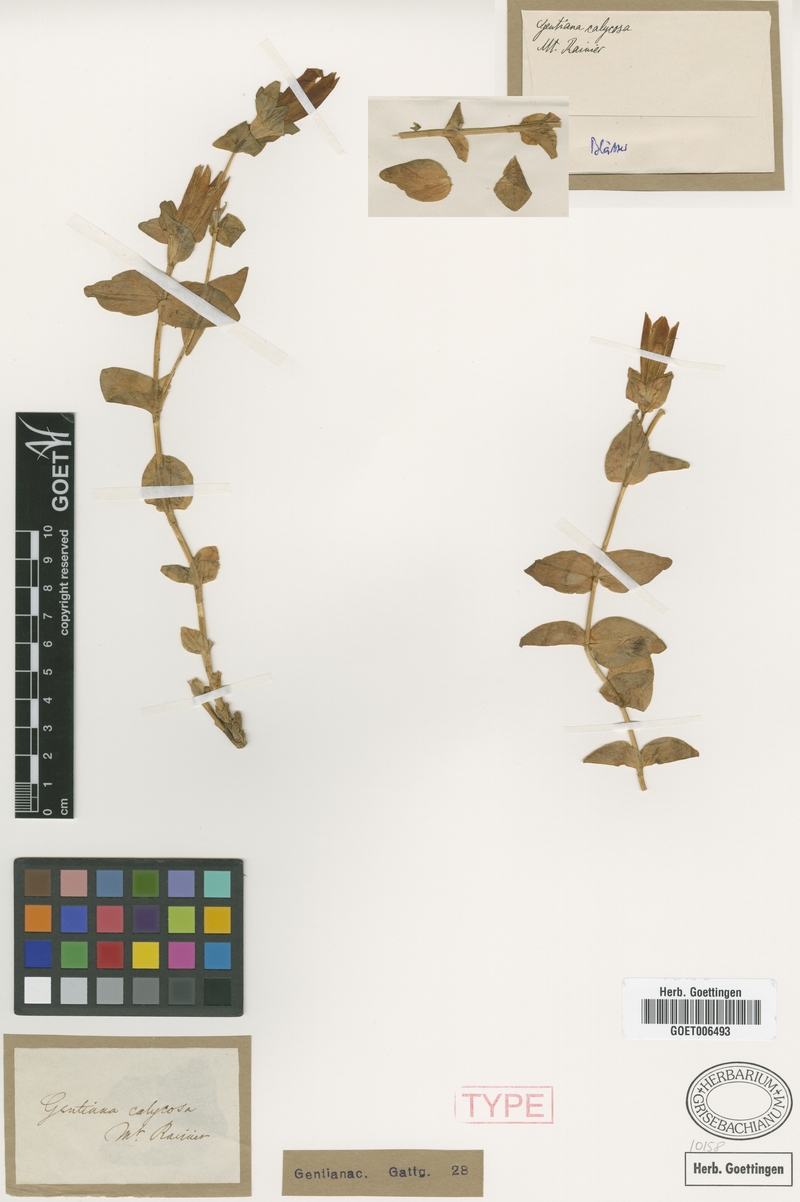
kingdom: Plantae
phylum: Tracheophyta
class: Magnoliopsida
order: Gentianales
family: Gentianaceae
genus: Gentiana
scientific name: Gentiana calycosa
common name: Rainier pleated gentian
